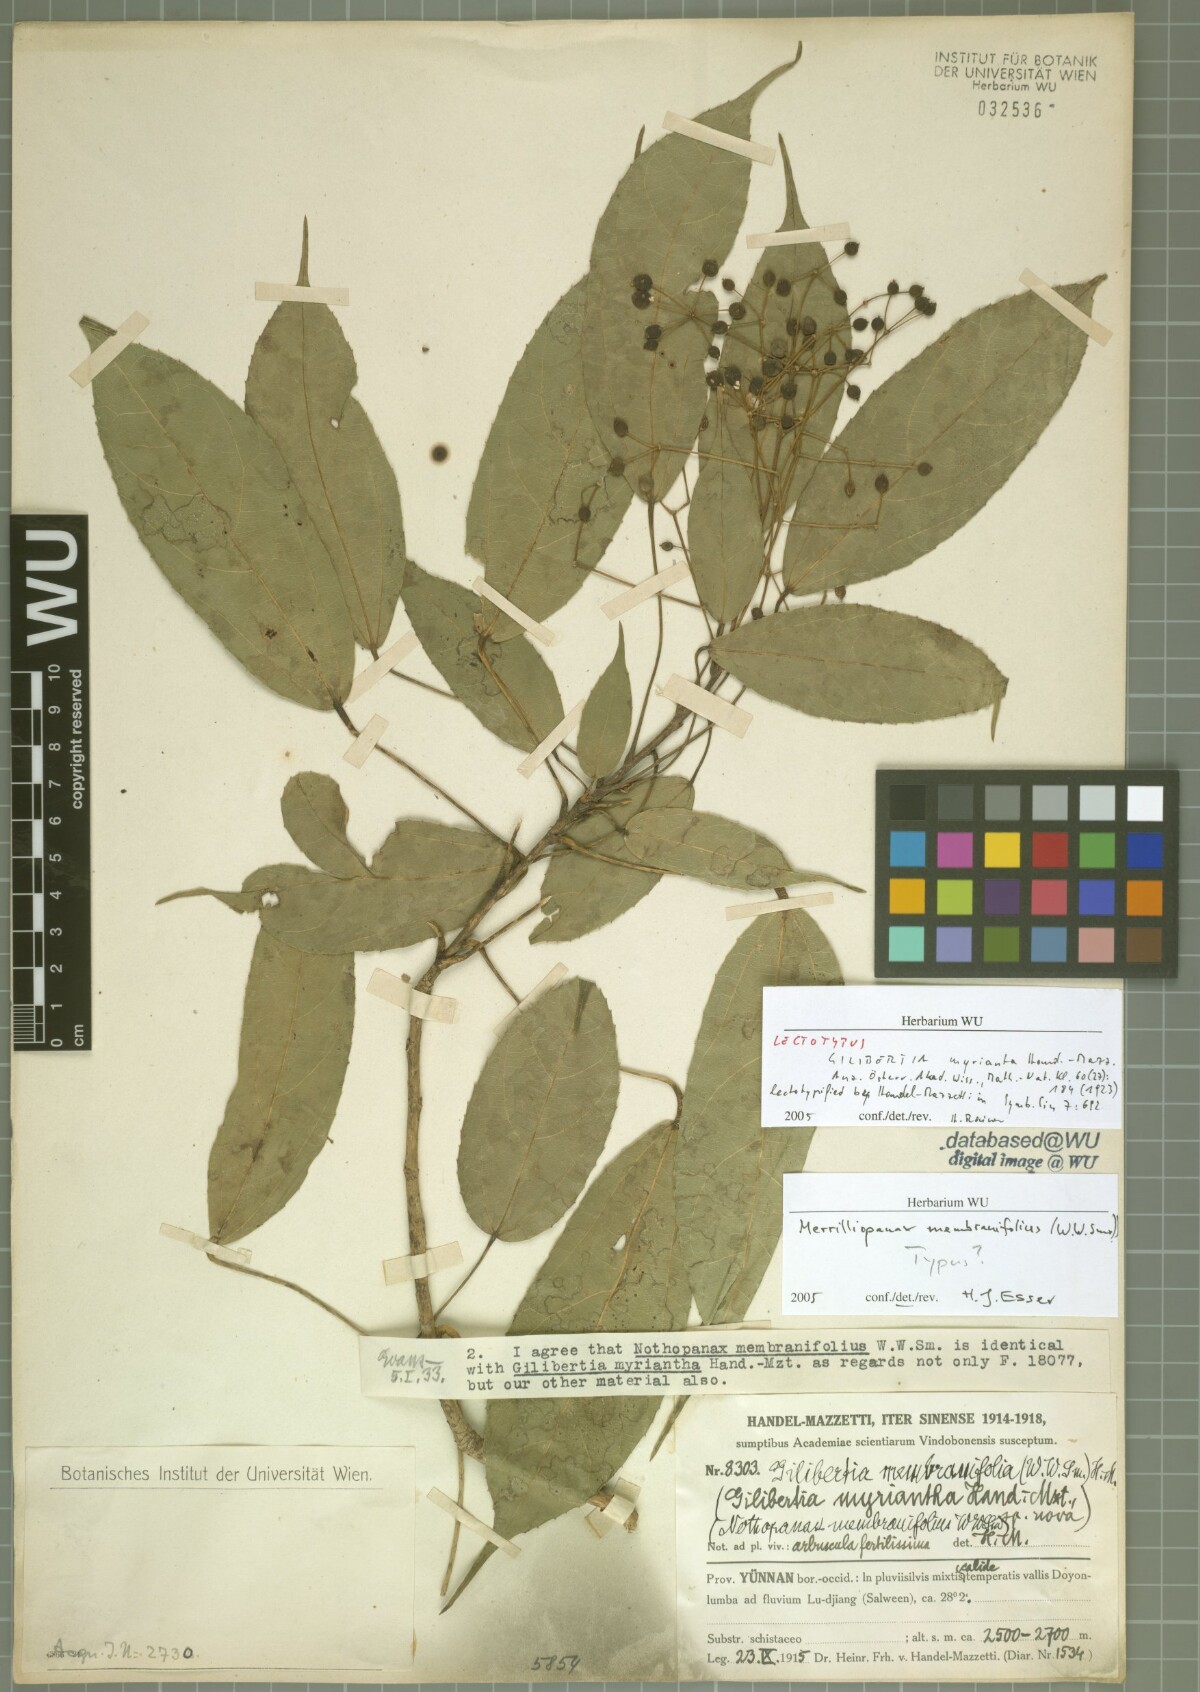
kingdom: Plantae
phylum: Tracheophyta
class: Magnoliopsida
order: Apiales
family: Araliaceae
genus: Merrilliopanax
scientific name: Merrilliopanax membranifolius
